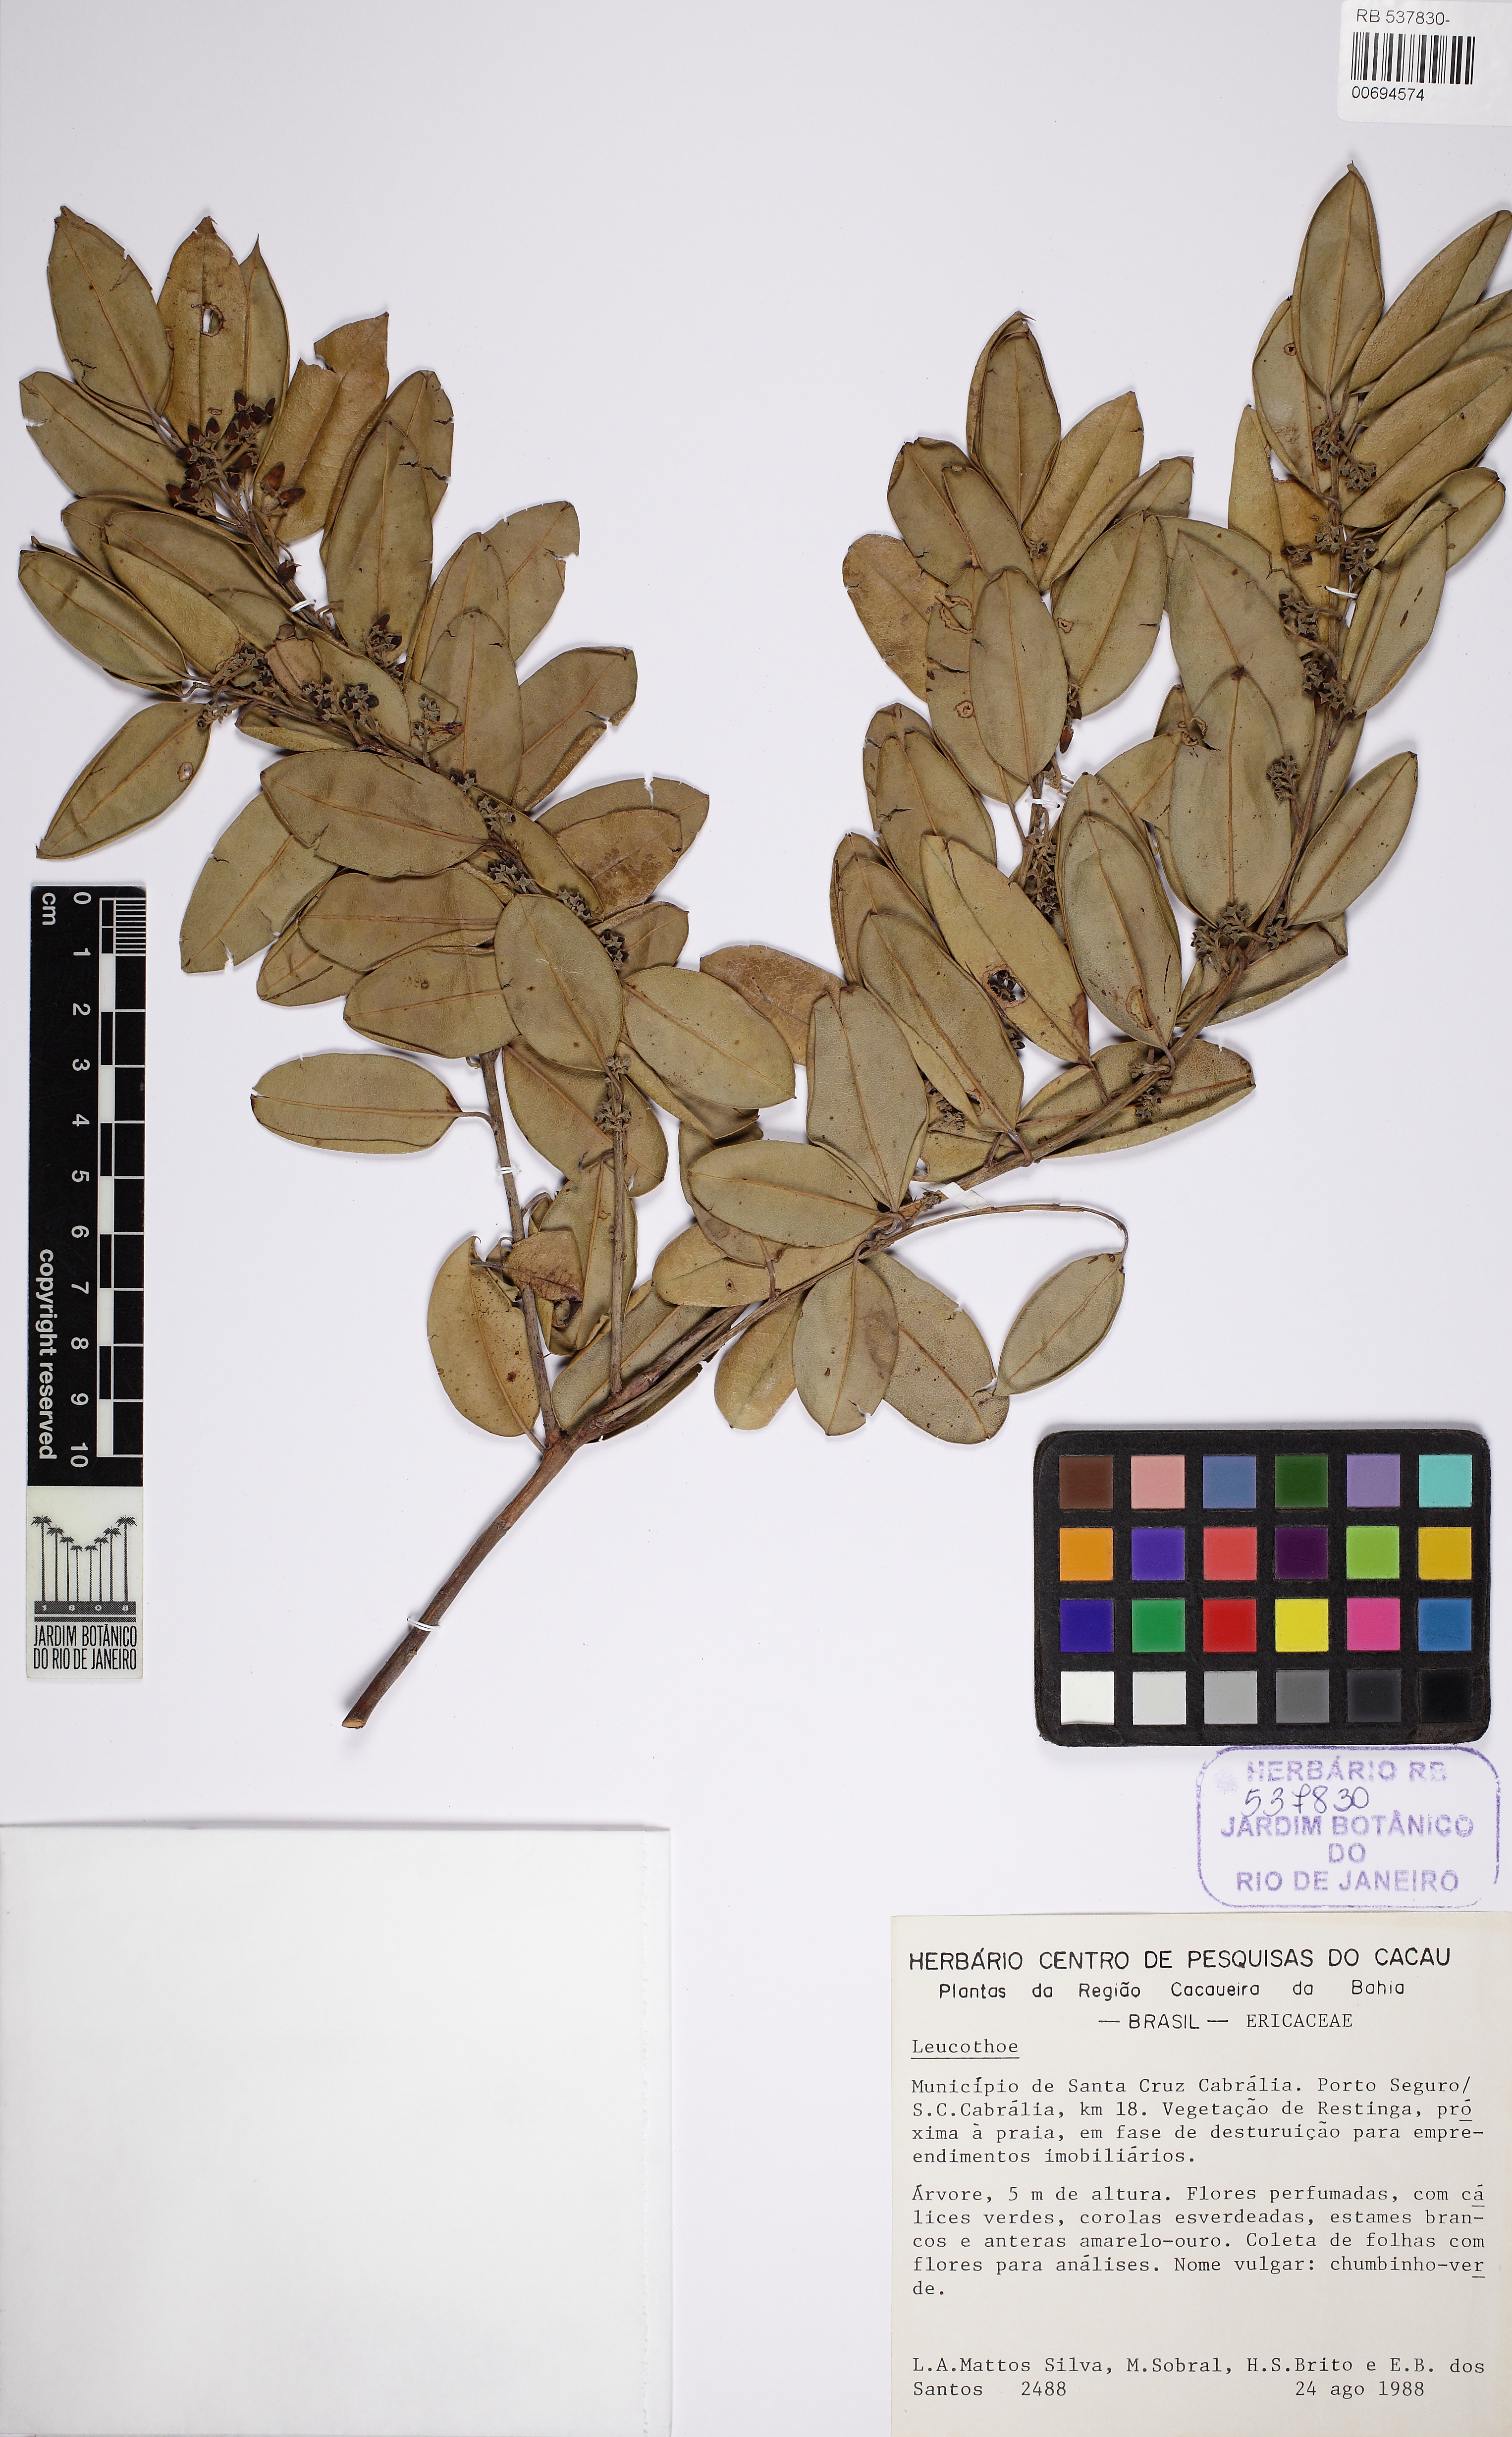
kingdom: Plantae
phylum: Tracheophyta
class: Magnoliopsida
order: Ericales
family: Ericaceae
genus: Agarista
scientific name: Agarista revoluta
